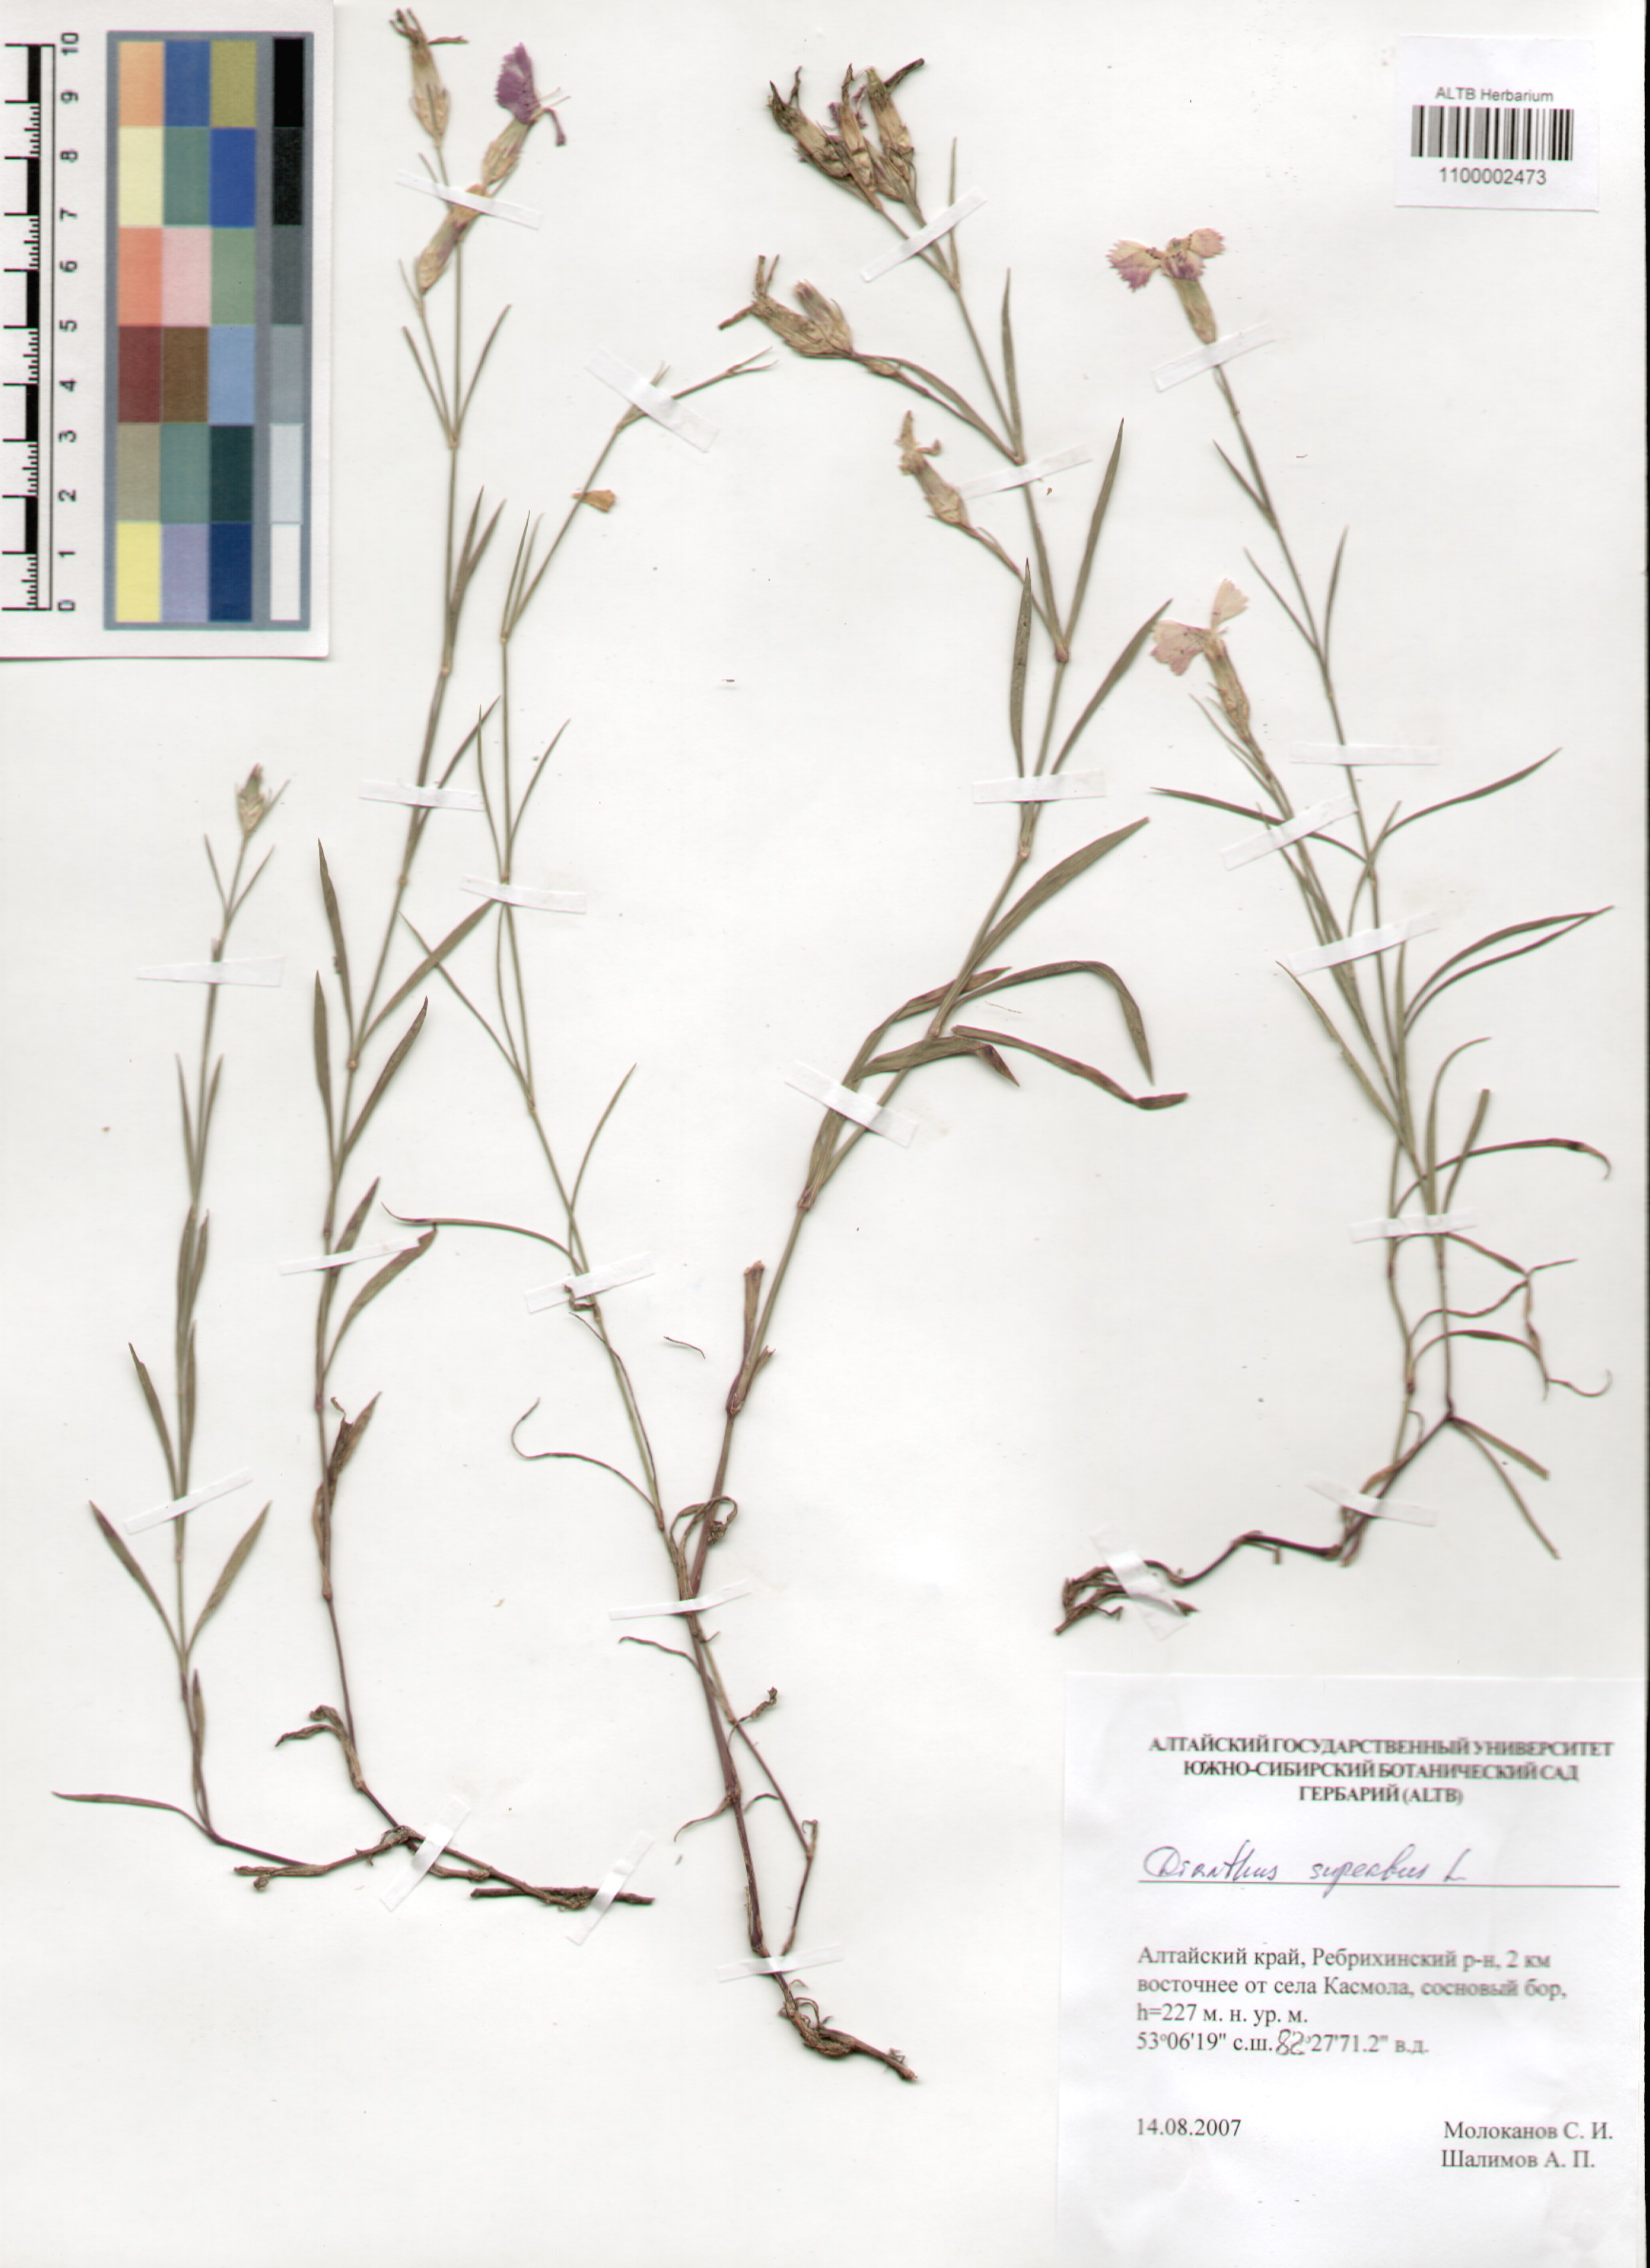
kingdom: Plantae
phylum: Tracheophyta
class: Magnoliopsida
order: Caryophyllales
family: Caryophyllaceae
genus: Dianthus
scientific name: Dianthus chinensis
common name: Rainbow pink
